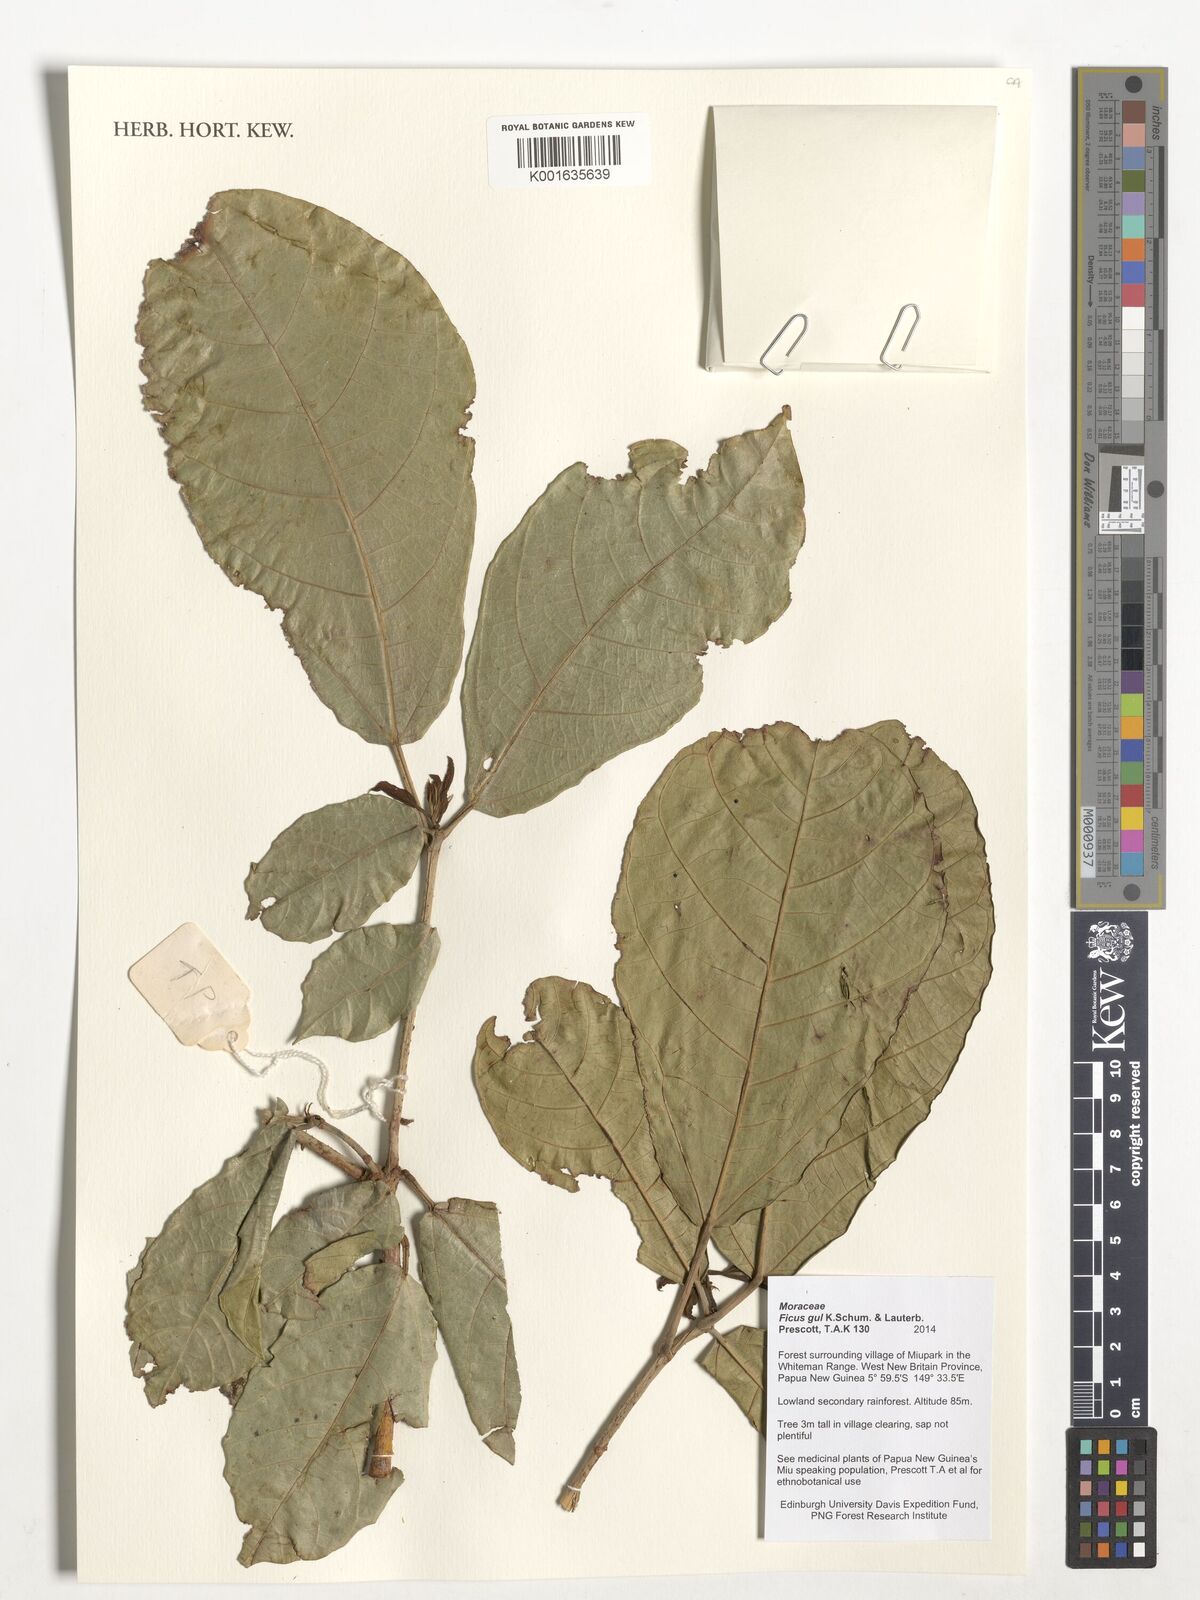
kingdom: Plantae
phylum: Tracheophyta
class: Magnoliopsida
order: Rosales
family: Moraceae
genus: Ficus
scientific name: Ficus gul
